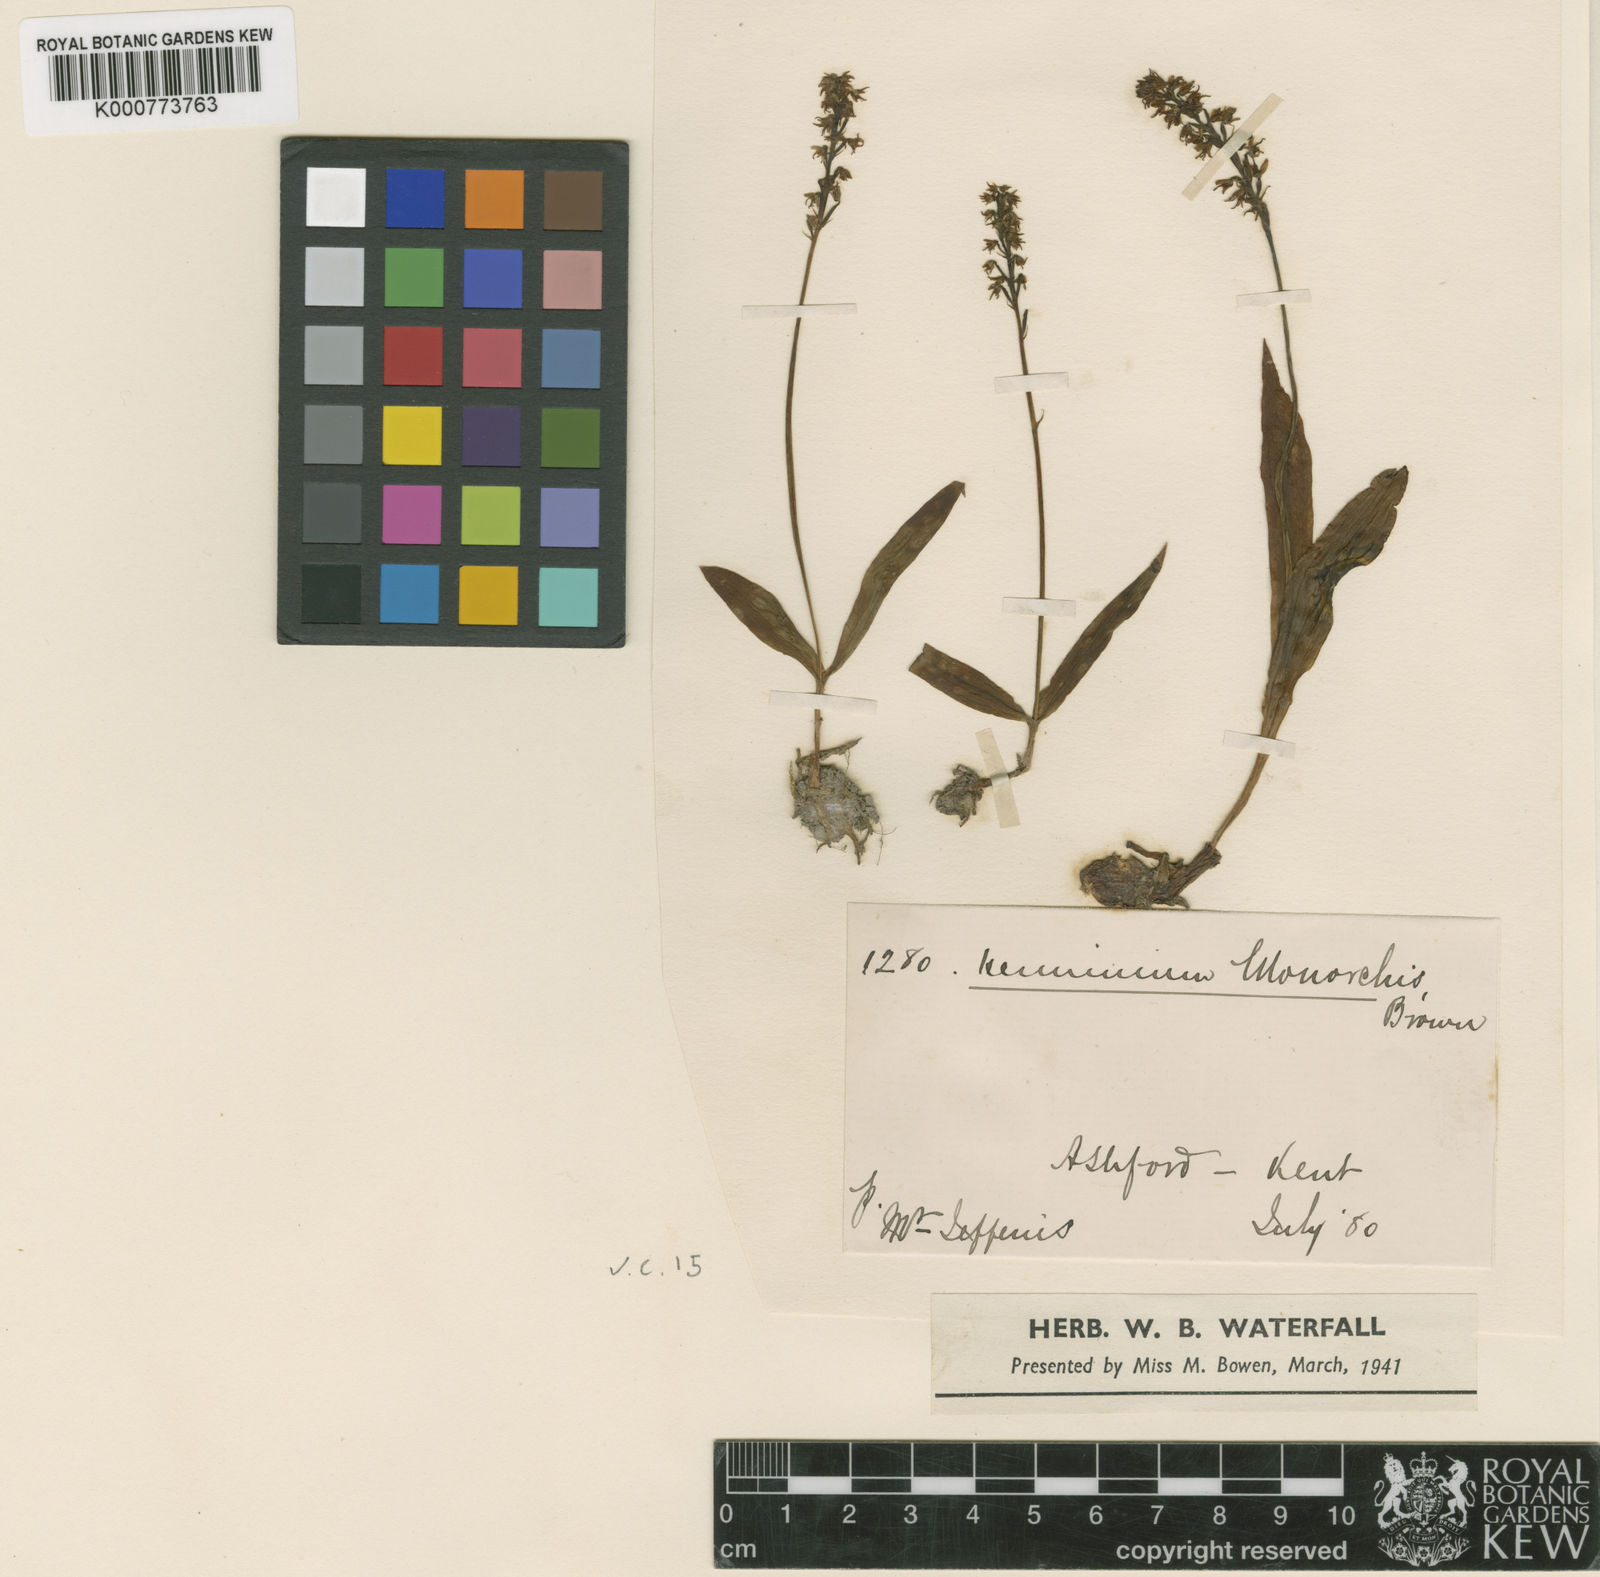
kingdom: Plantae
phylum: Tracheophyta
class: Liliopsida
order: Asparagales
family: Orchidaceae
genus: Herminium
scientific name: Herminium monorchis
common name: Musk orchid
